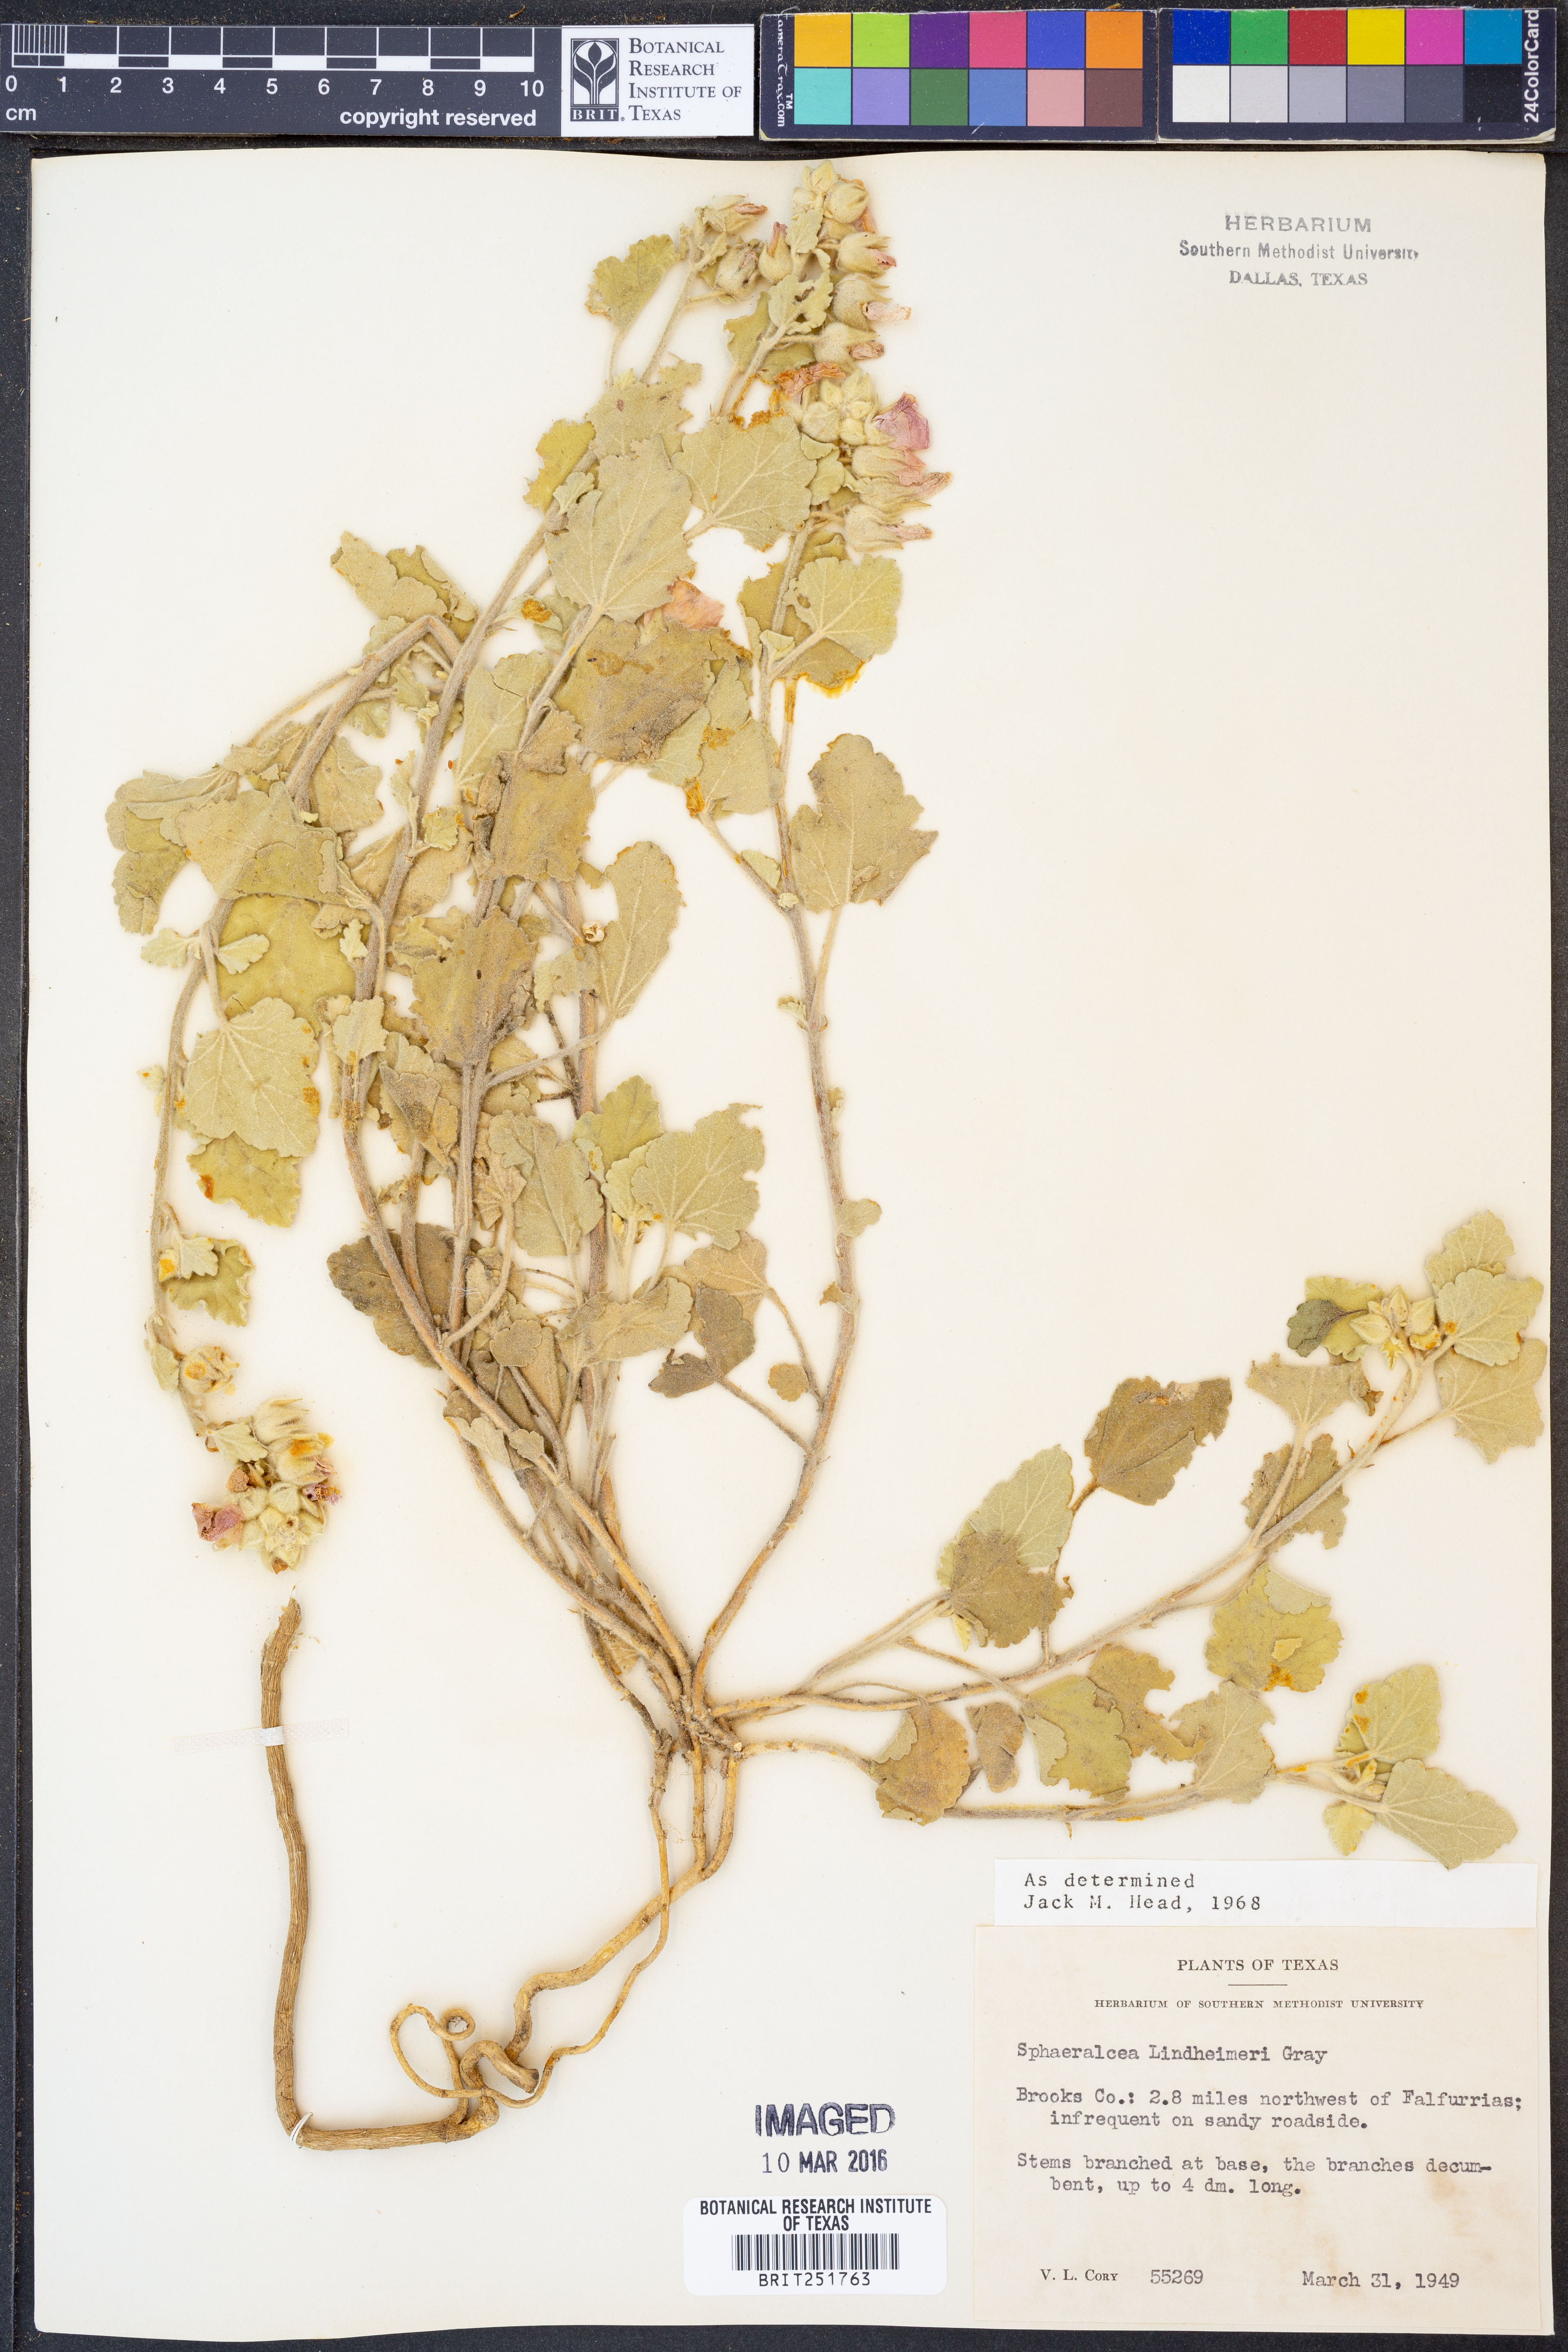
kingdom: Plantae
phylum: Tracheophyta
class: Magnoliopsida
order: Malvales
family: Malvaceae
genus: Sphaeralcea
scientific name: Sphaeralcea lindheimeri
